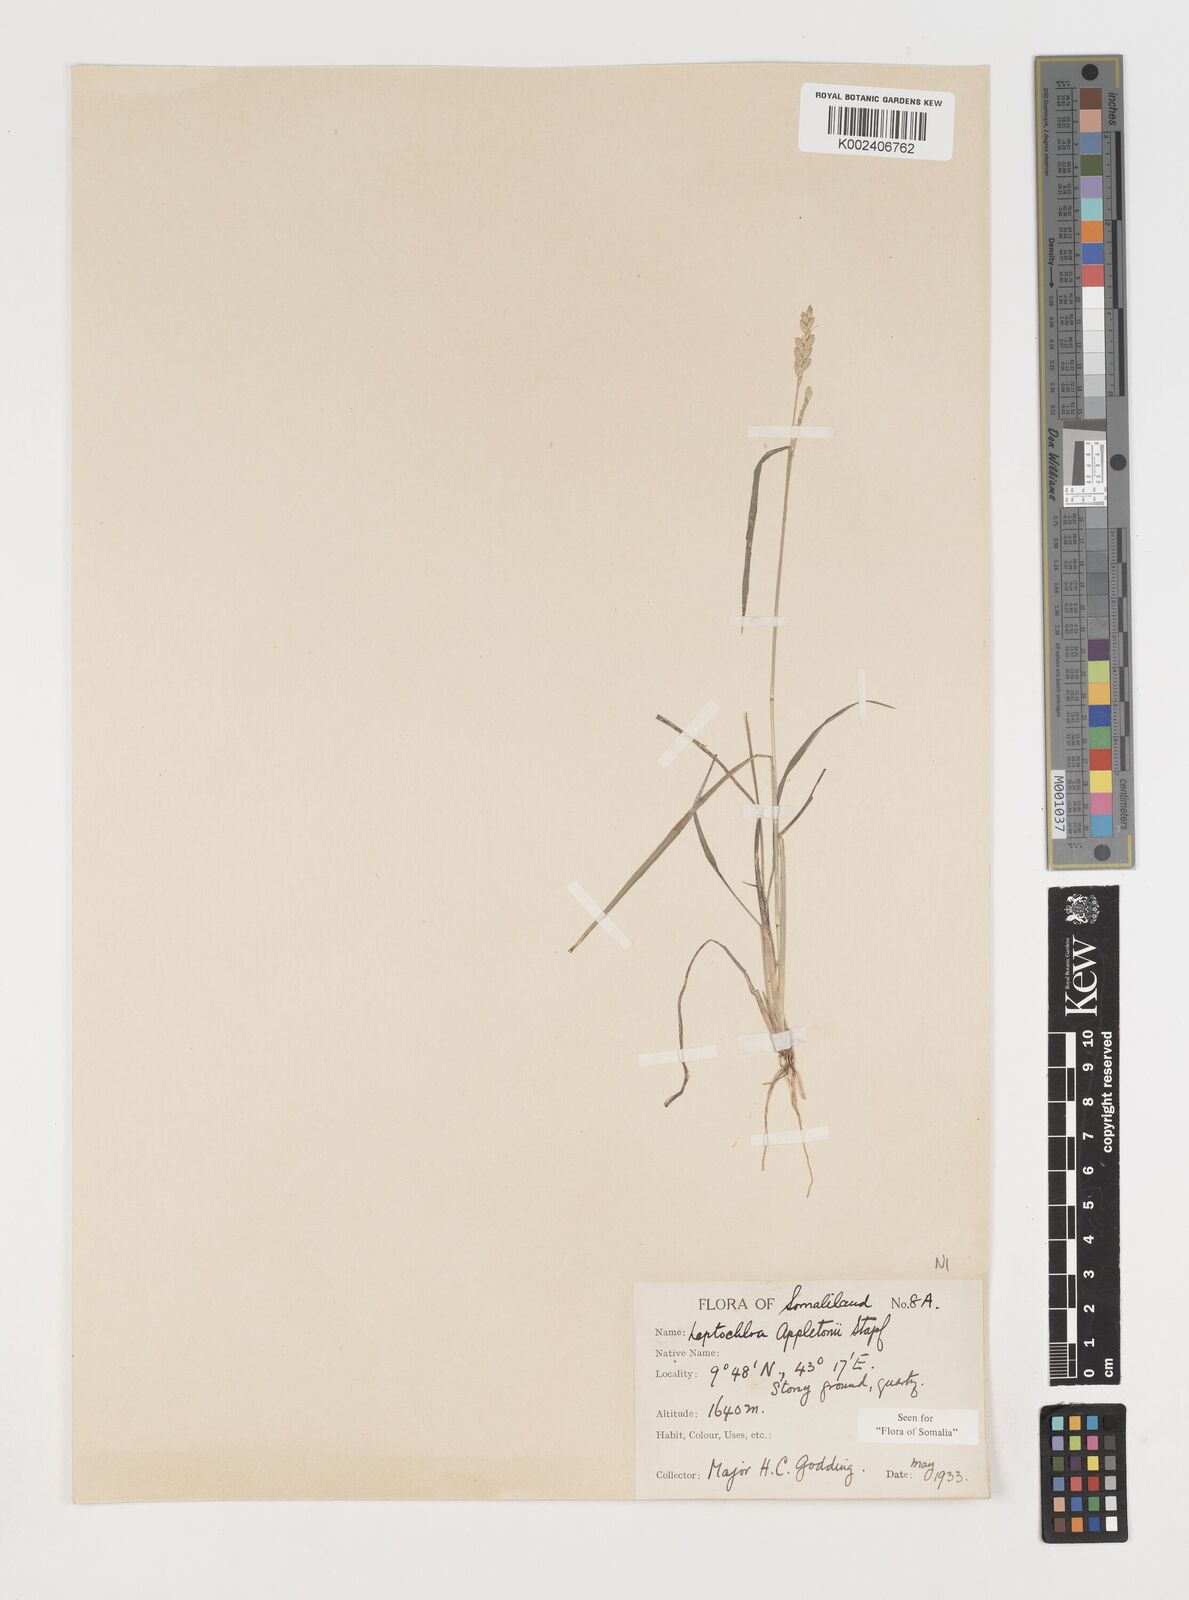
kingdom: Plantae
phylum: Tracheophyta
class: Liliopsida
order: Poales
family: Poaceae
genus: Disakisperma
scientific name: Disakisperma yemenicum
